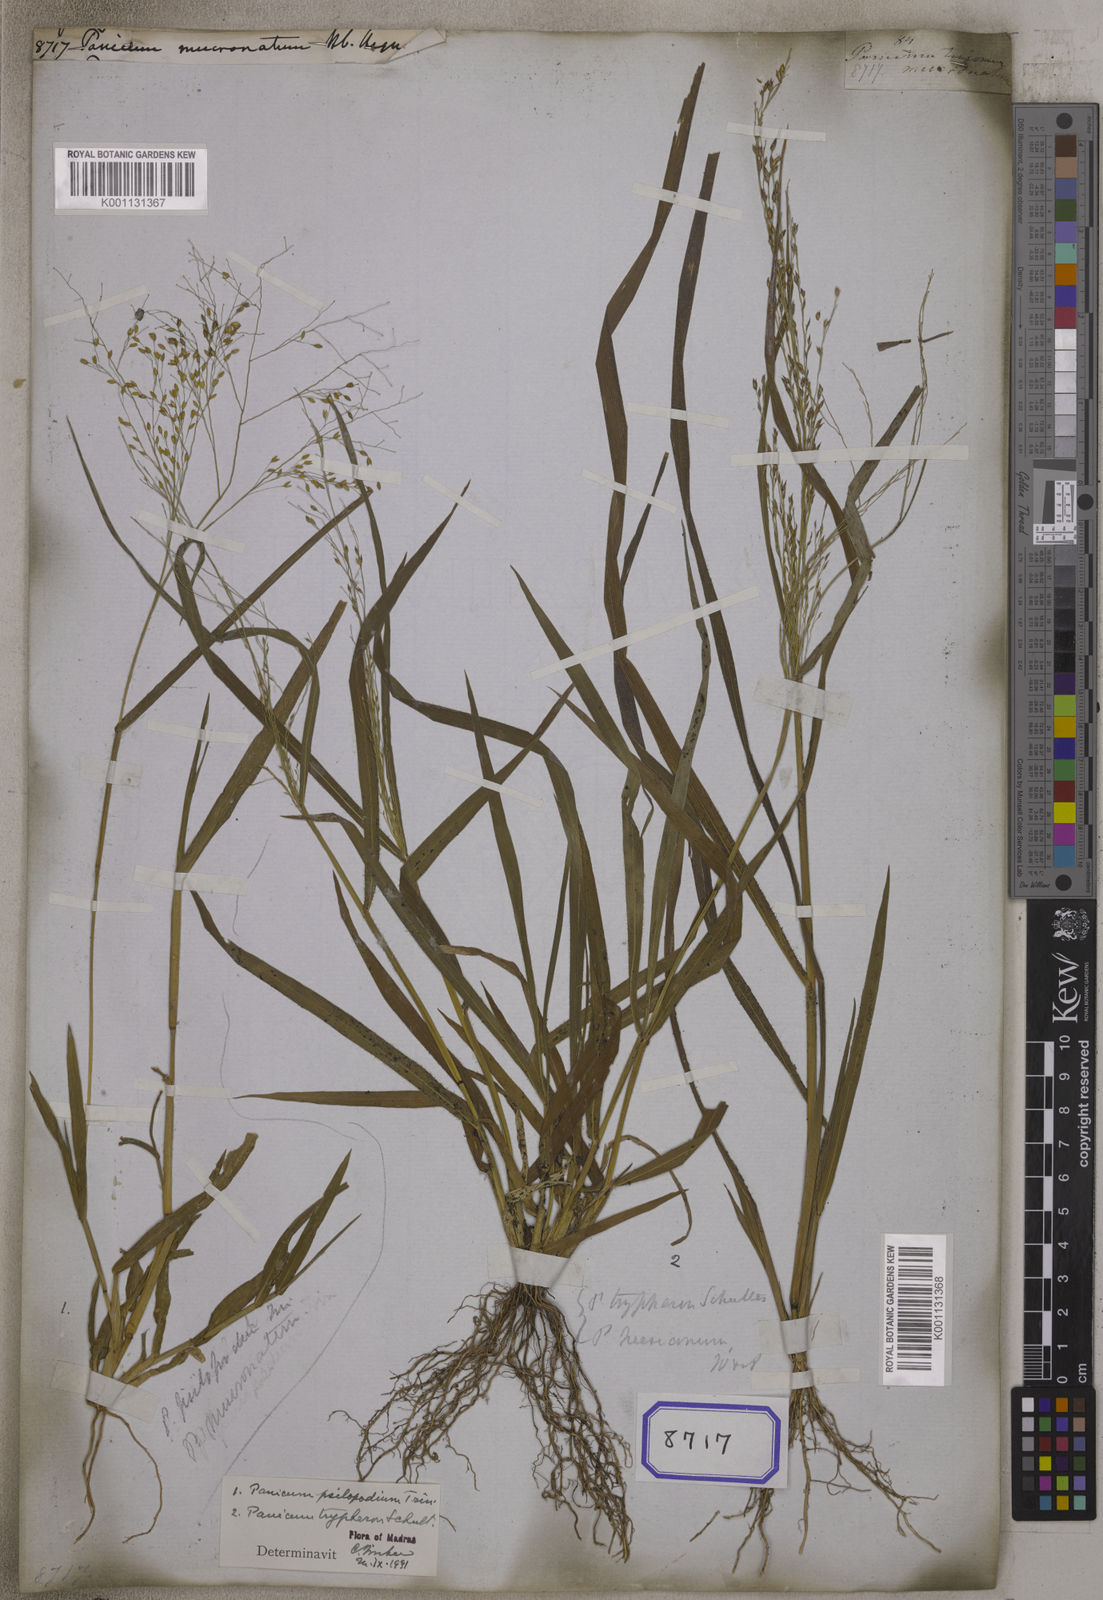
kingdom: Plantae
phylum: Tracheophyta
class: Liliopsida
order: Poales
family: Poaceae
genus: Panicum
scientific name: Panicum
